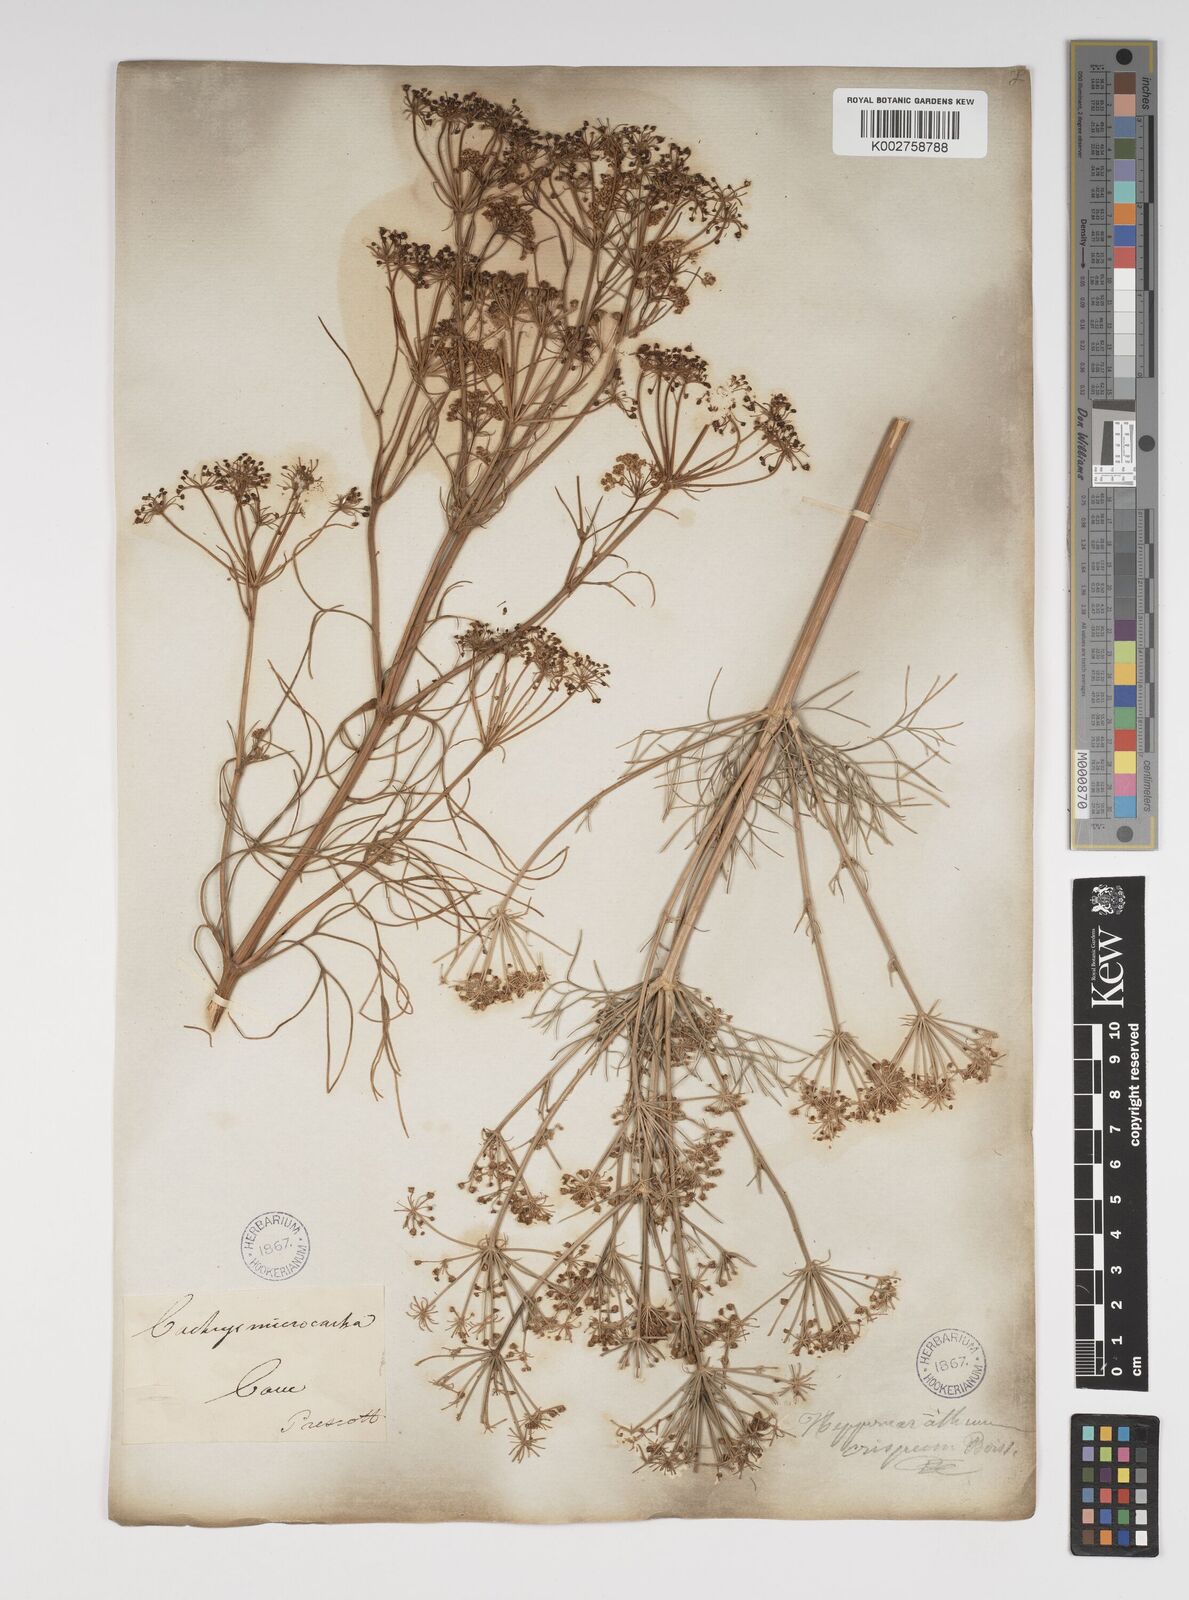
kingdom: Plantae
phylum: Tracheophyta
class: Magnoliopsida
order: Apiales
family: Apiaceae
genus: Bilacunaria
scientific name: Bilacunaria microcarpa
